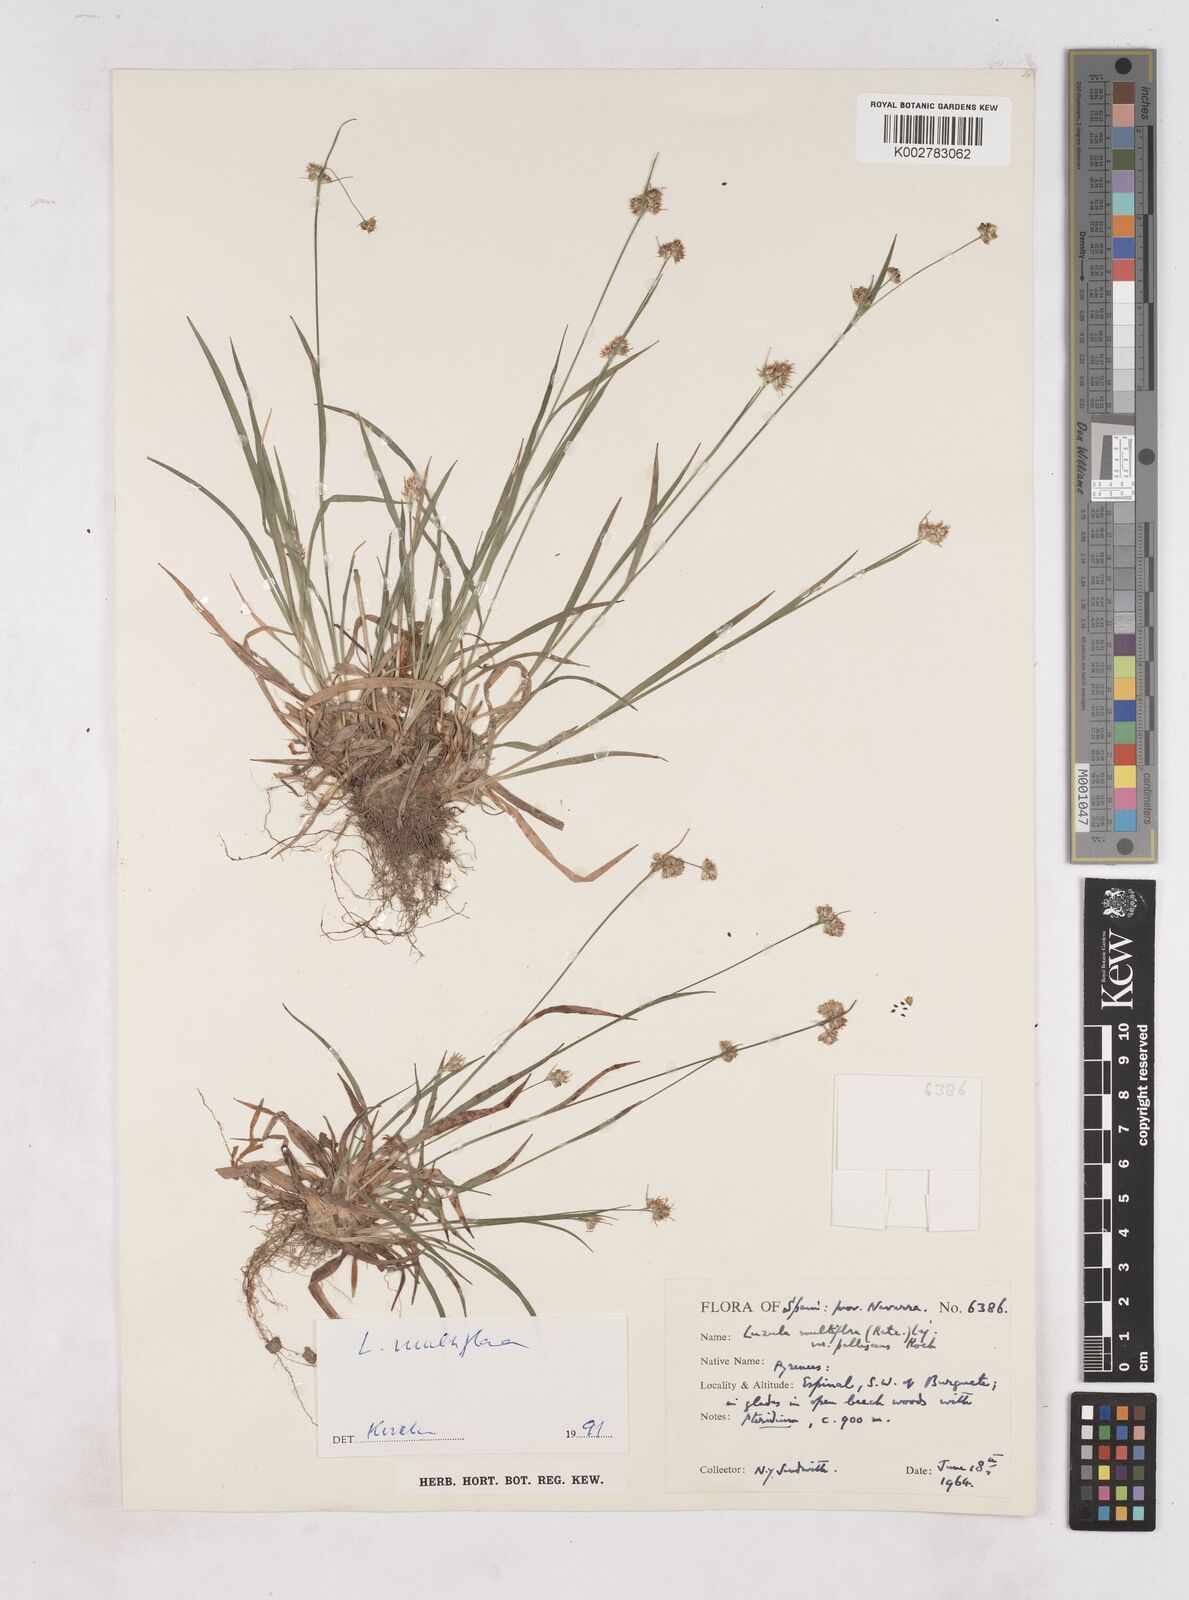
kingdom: Plantae
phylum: Tracheophyta
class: Liliopsida
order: Poales
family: Juncaceae
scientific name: Juncaceae
